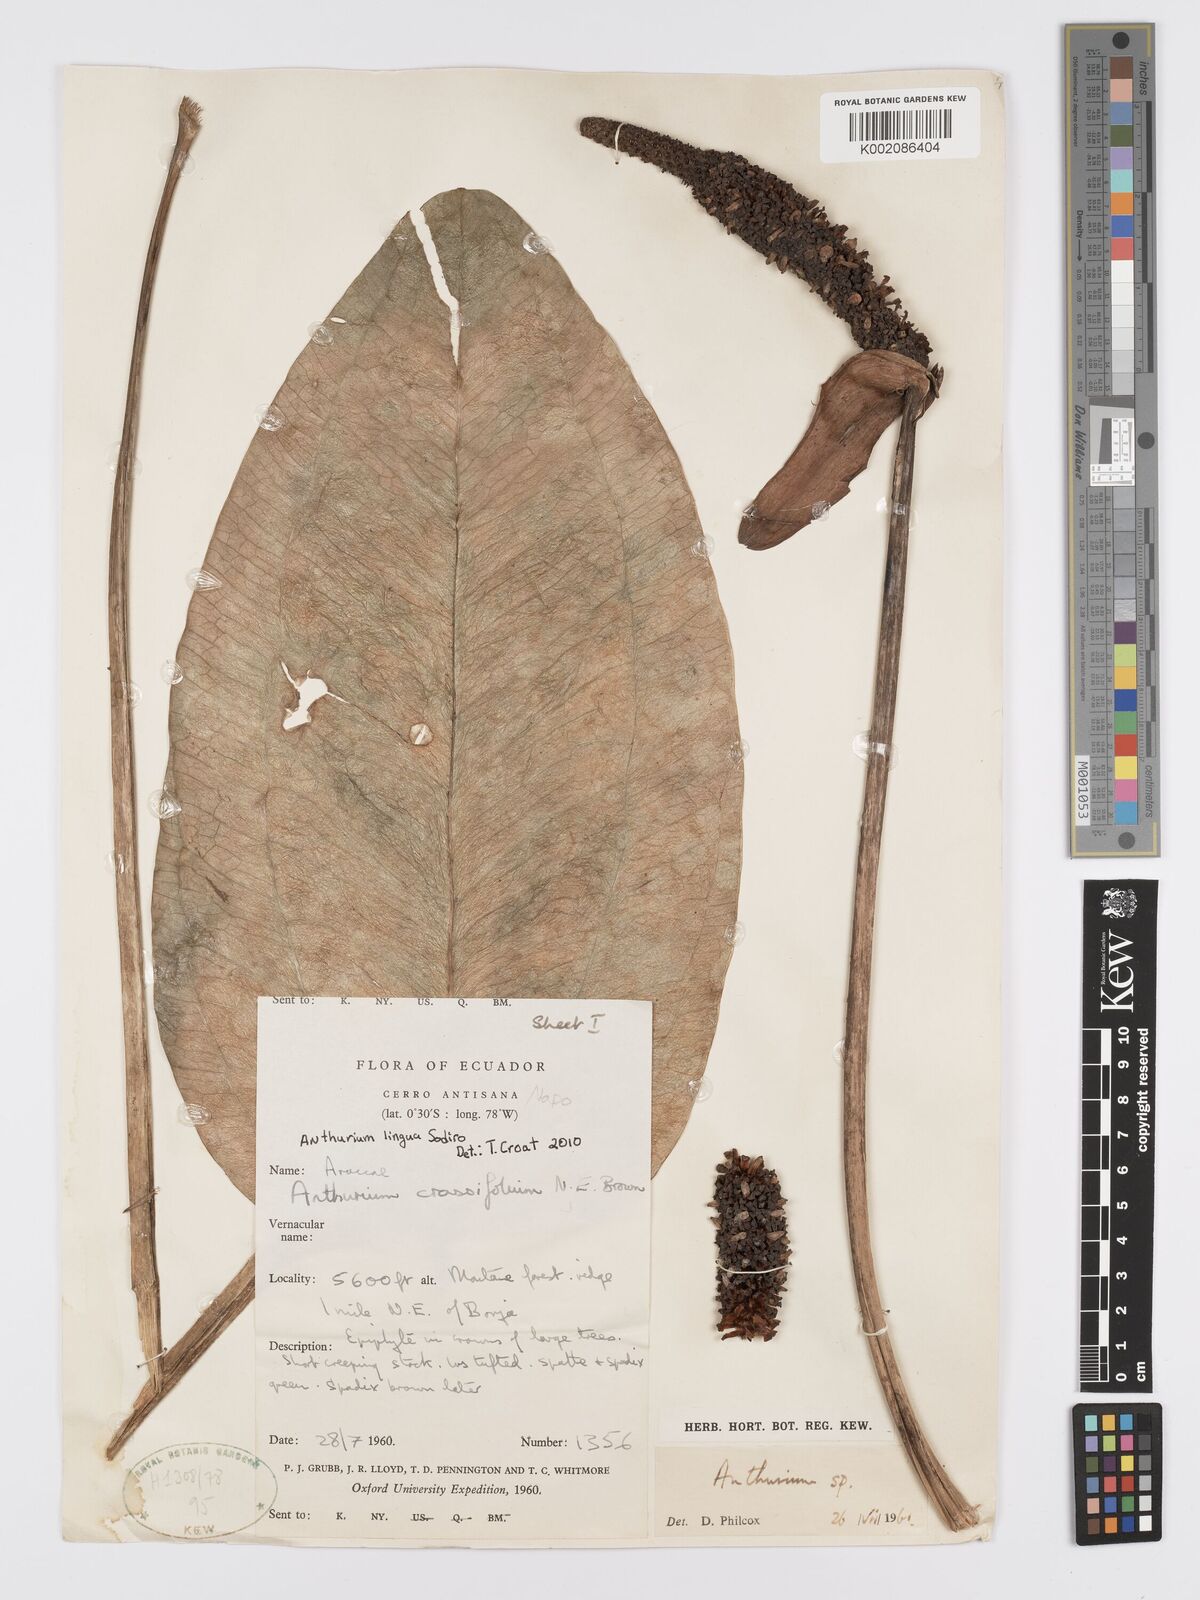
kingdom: Plantae
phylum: Tracheophyta
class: Liliopsida
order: Alismatales
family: Araceae
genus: Anthurium
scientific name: Anthurium lingua
